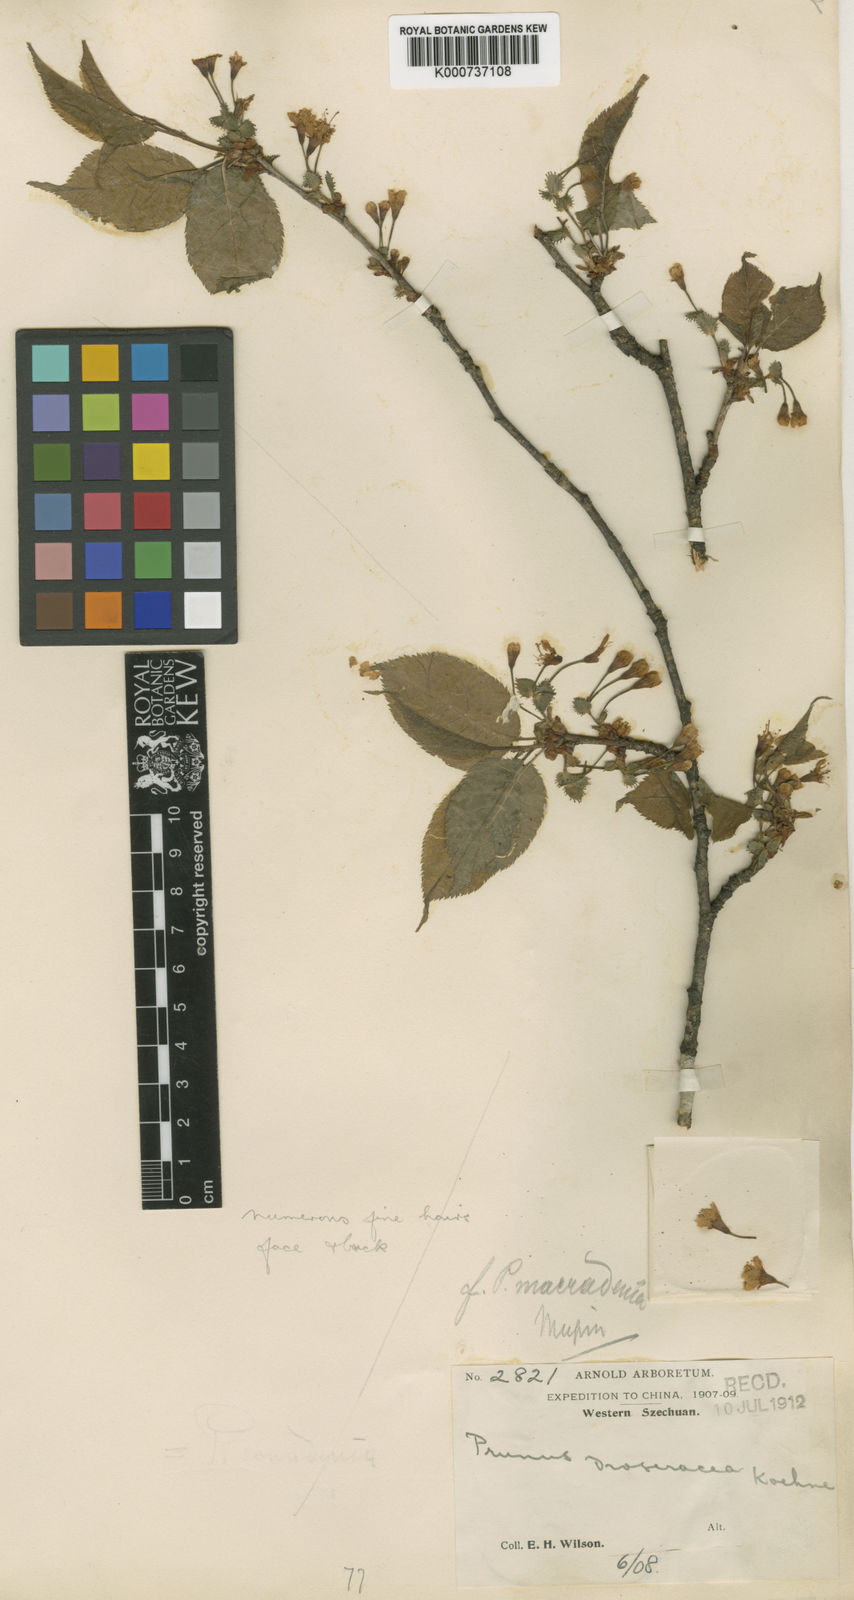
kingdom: Plantae
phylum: Tracheophyta
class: Magnoliopsida
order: Rosales
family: Rosaceae
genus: Prunus
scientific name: Prunus conadenia
